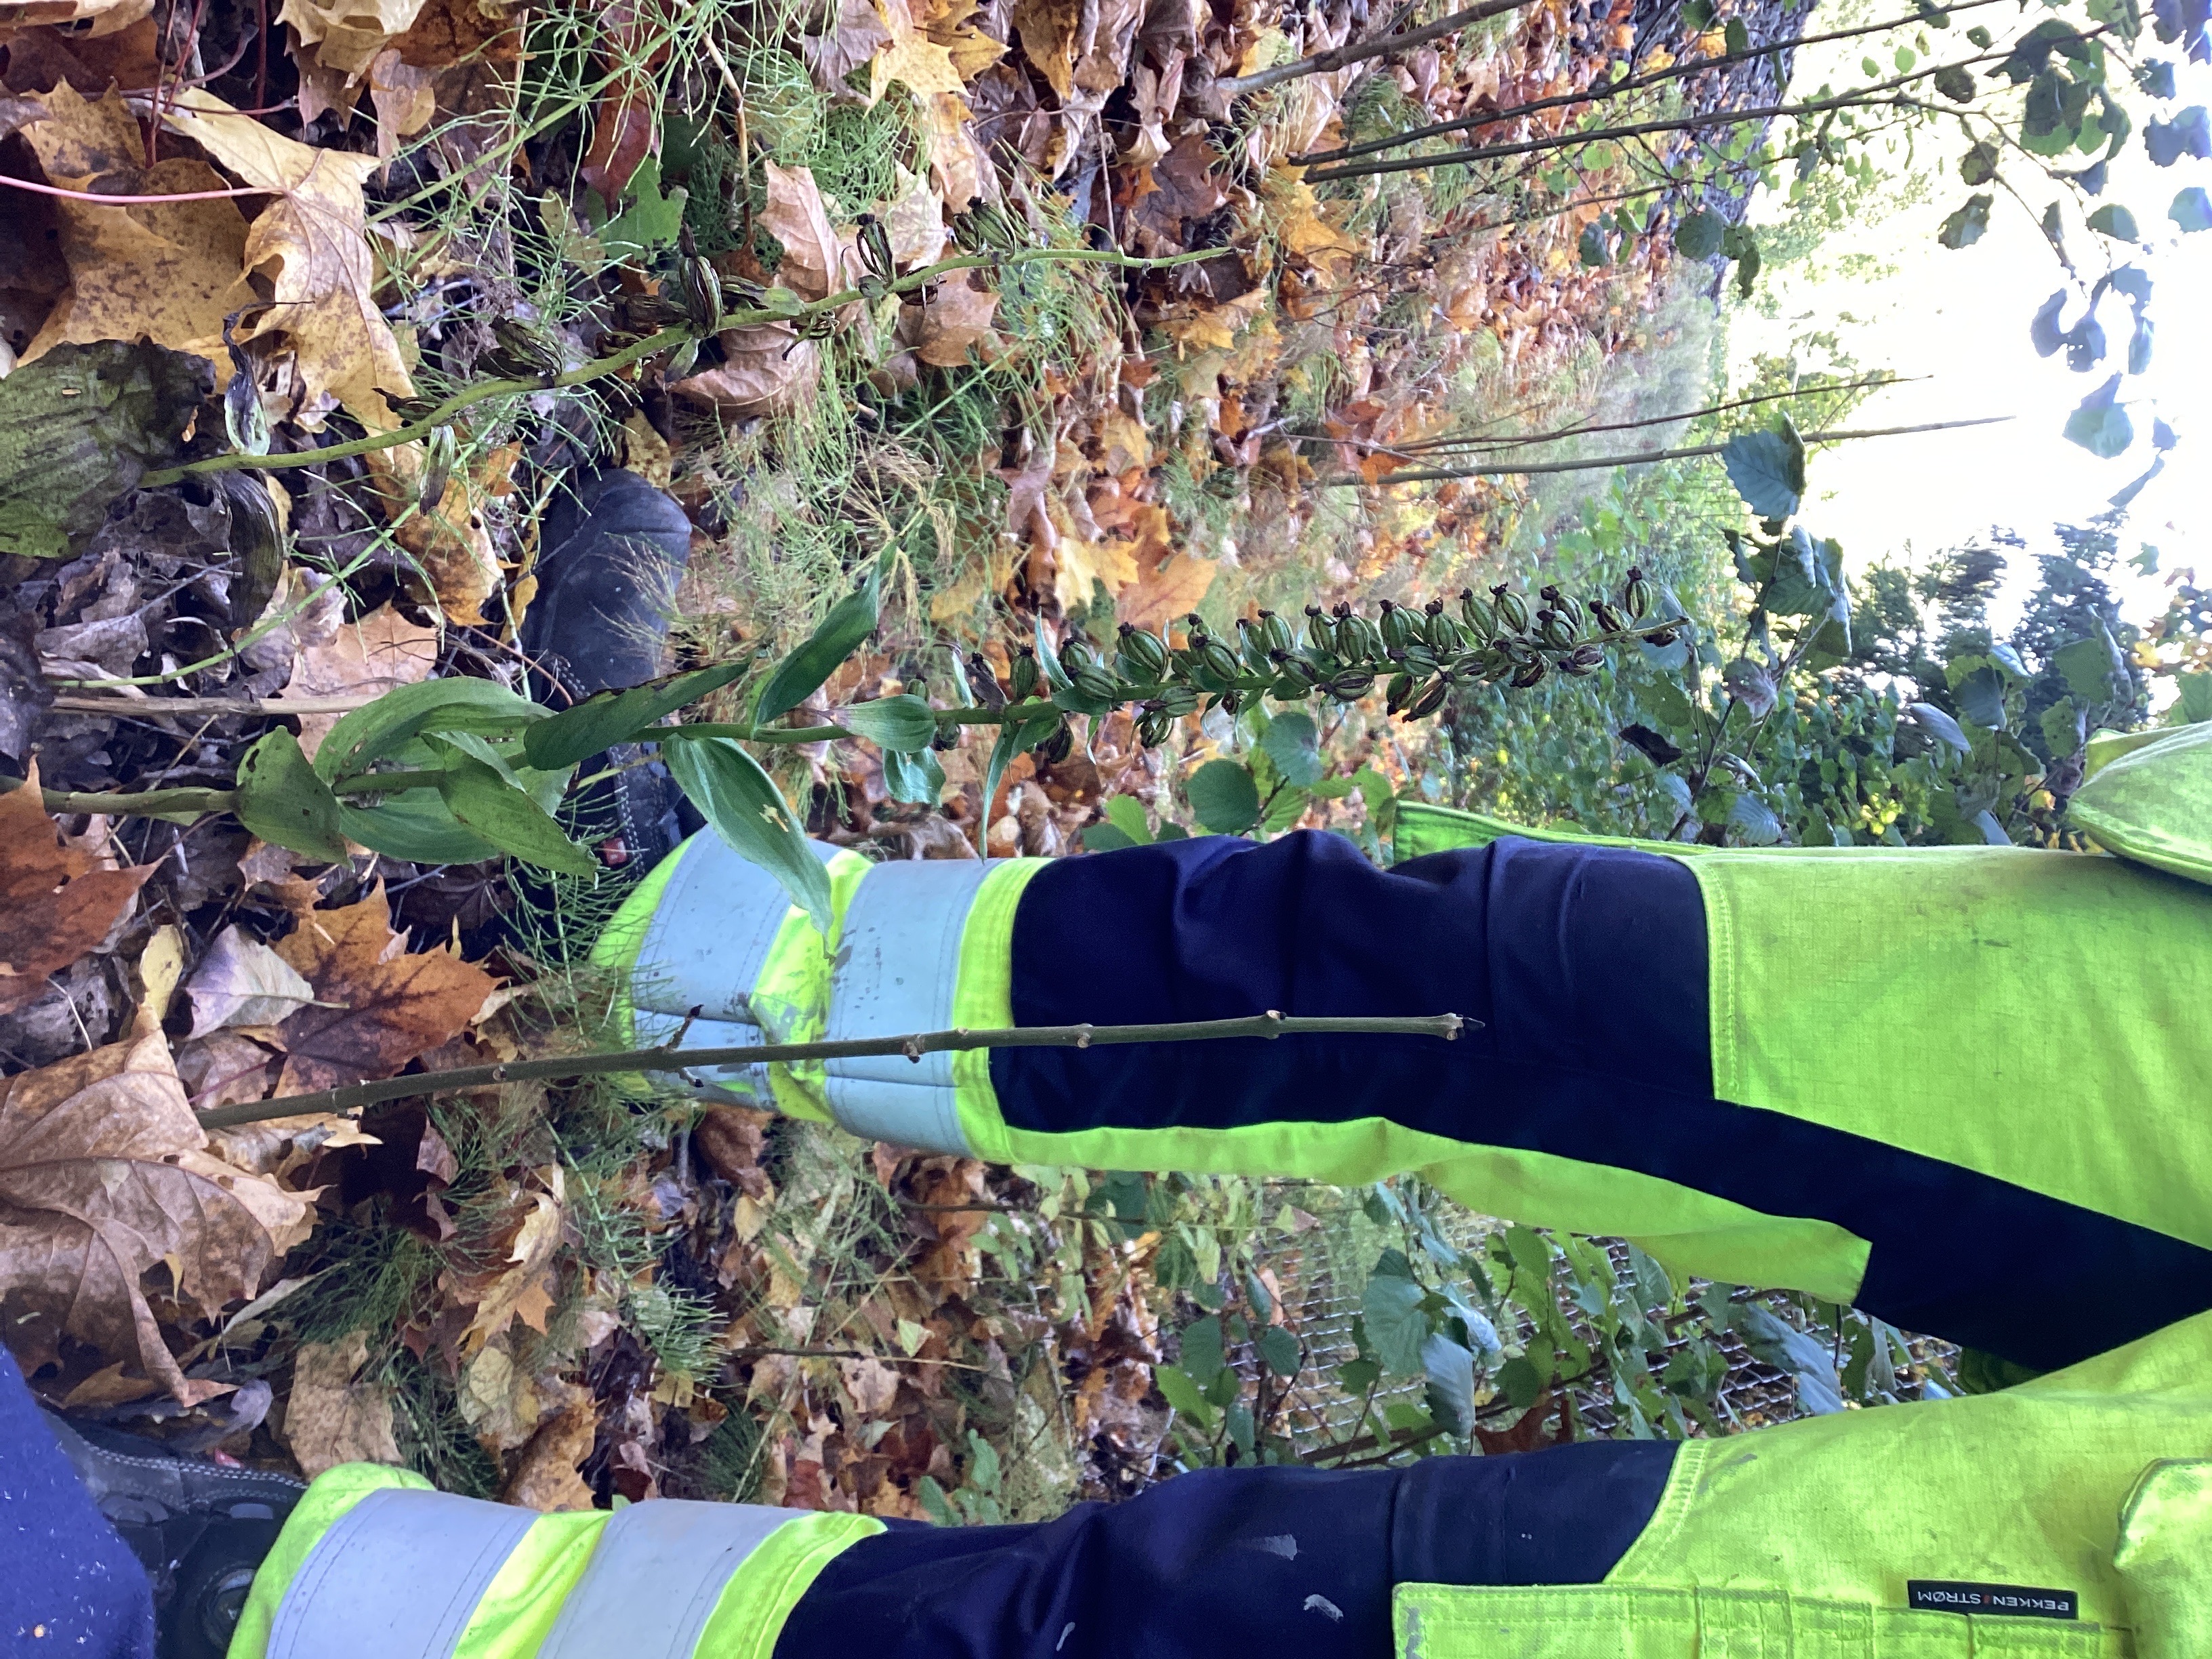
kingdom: Plantae
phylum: Tracheophyta
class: Liliopsida
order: Asparagales
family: Orchidaceae
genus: Epipactis
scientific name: Epipactis helleborine
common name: skogbreiflangre
